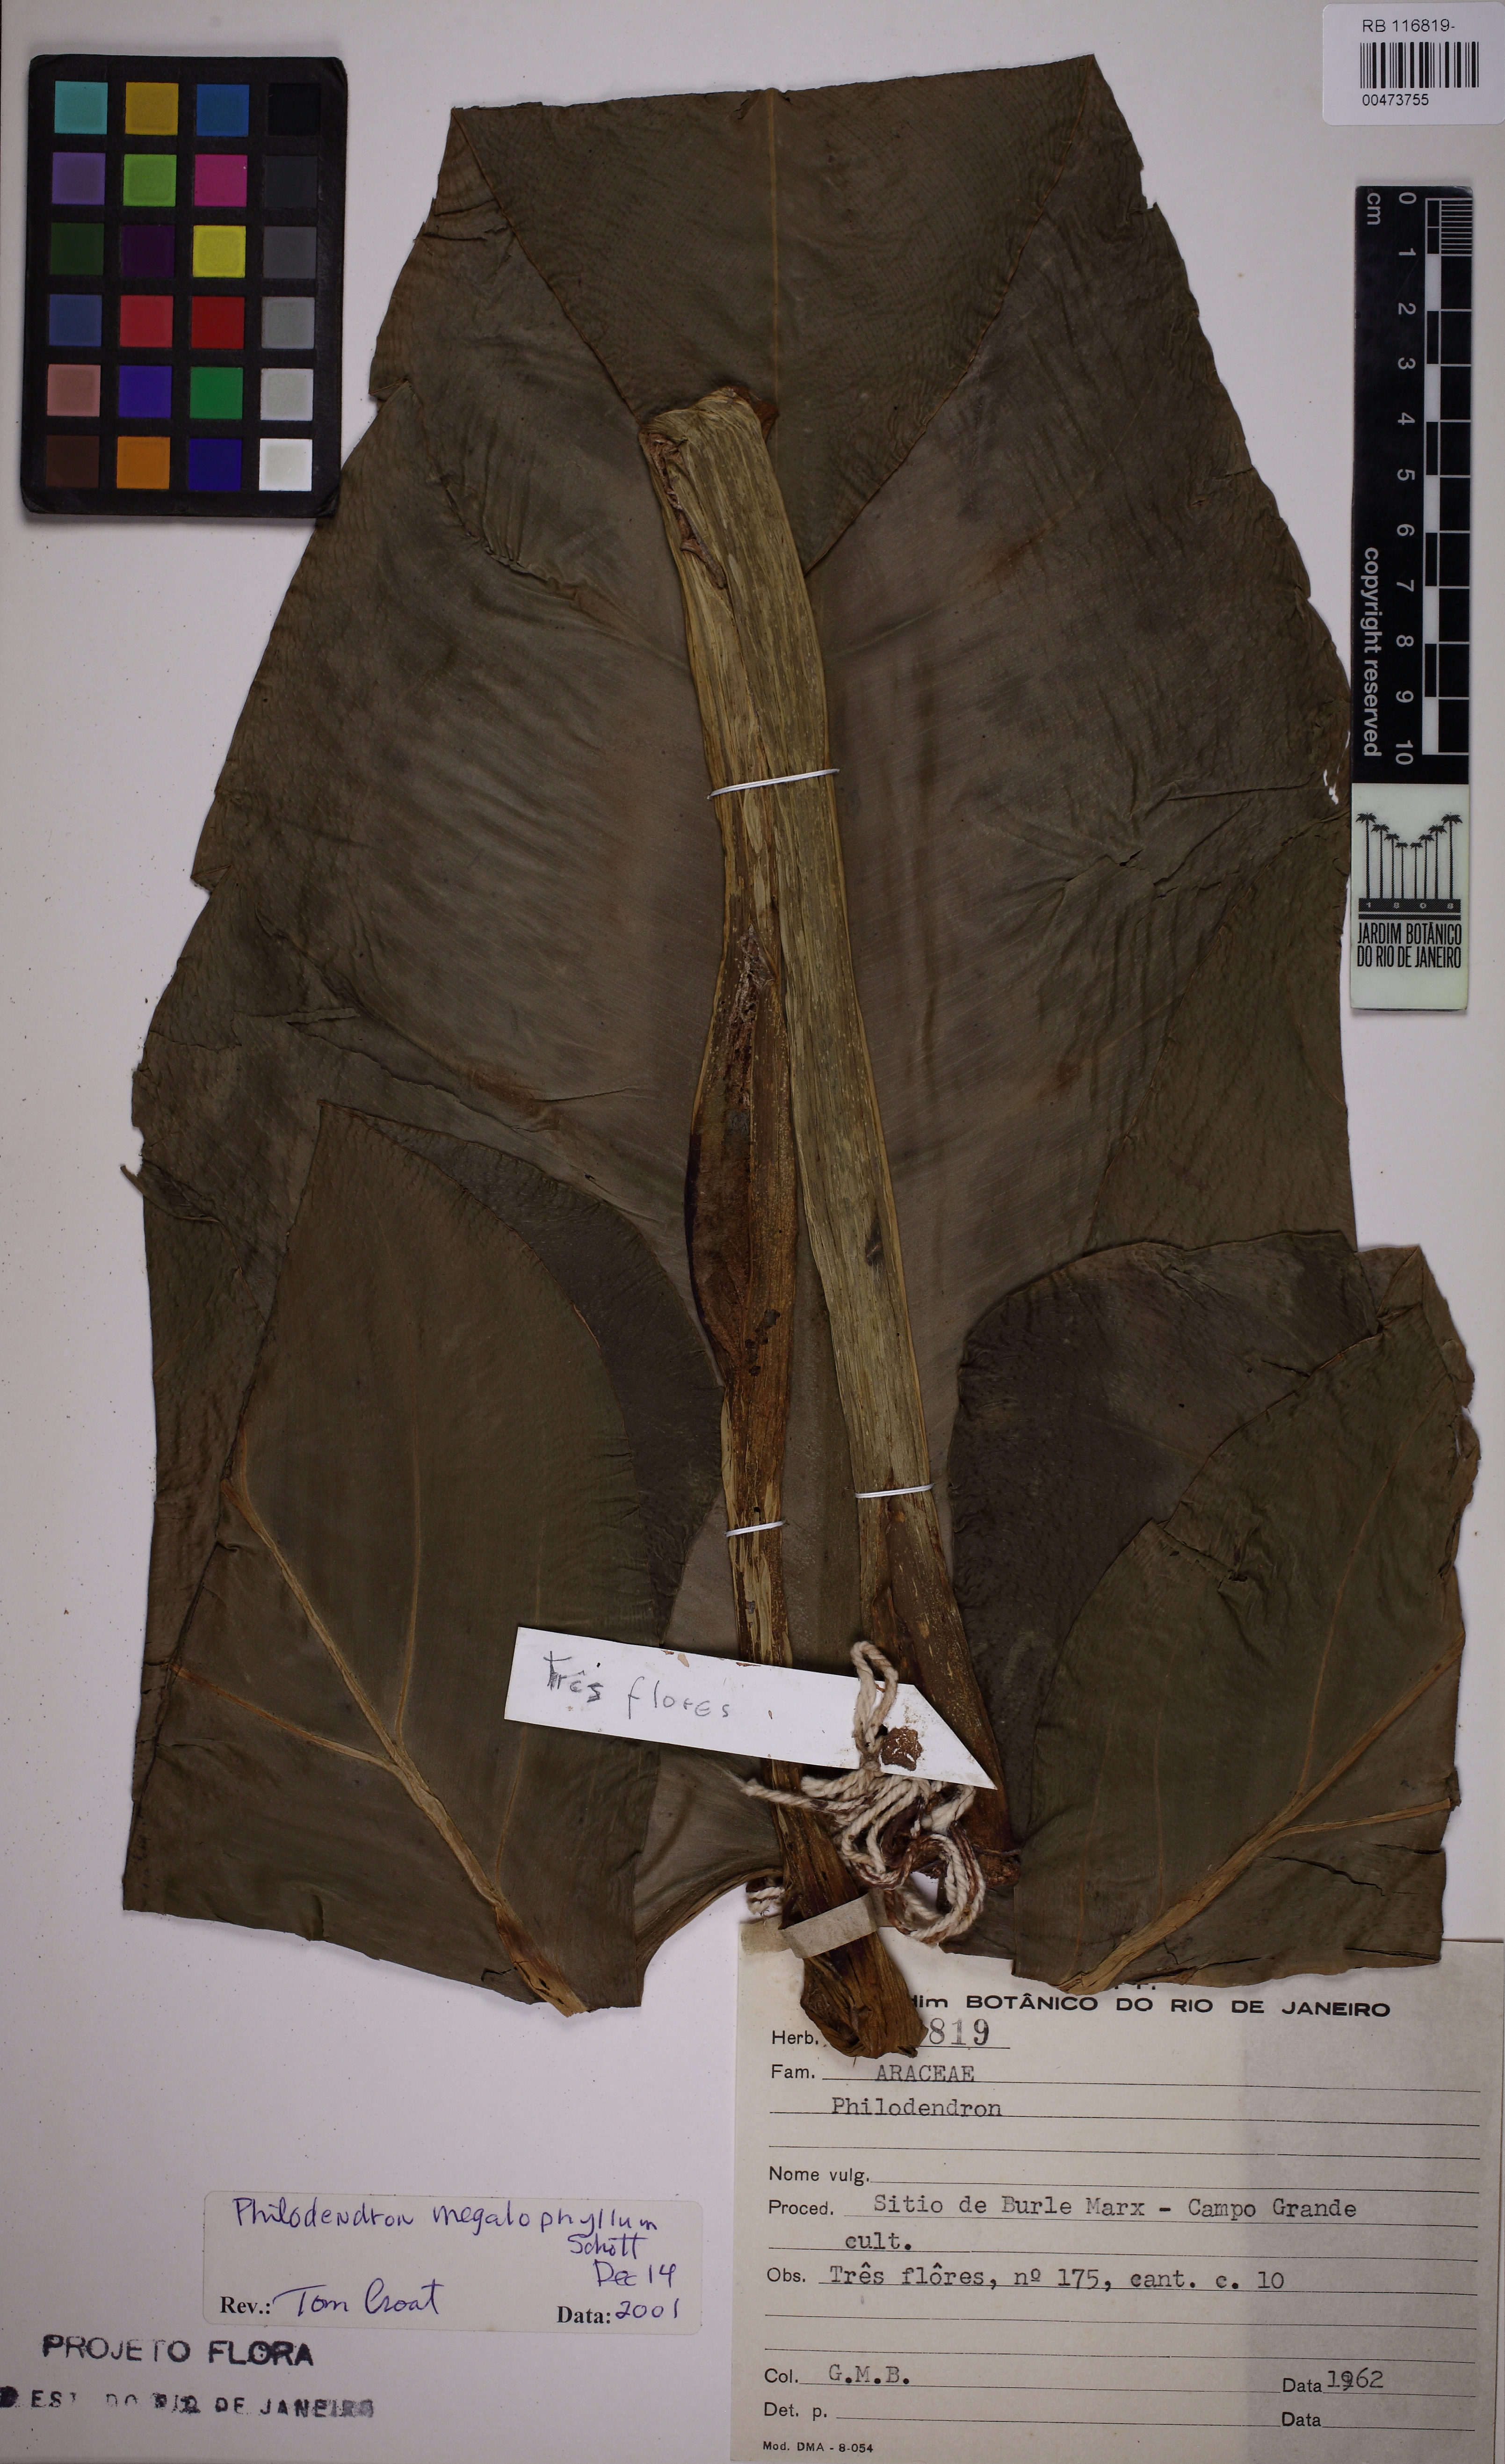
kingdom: Plantae
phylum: Tracheophyta
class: Liliopsida
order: Alismatales
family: Araceae
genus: Philodendron
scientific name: Philodendron megalophyllum
